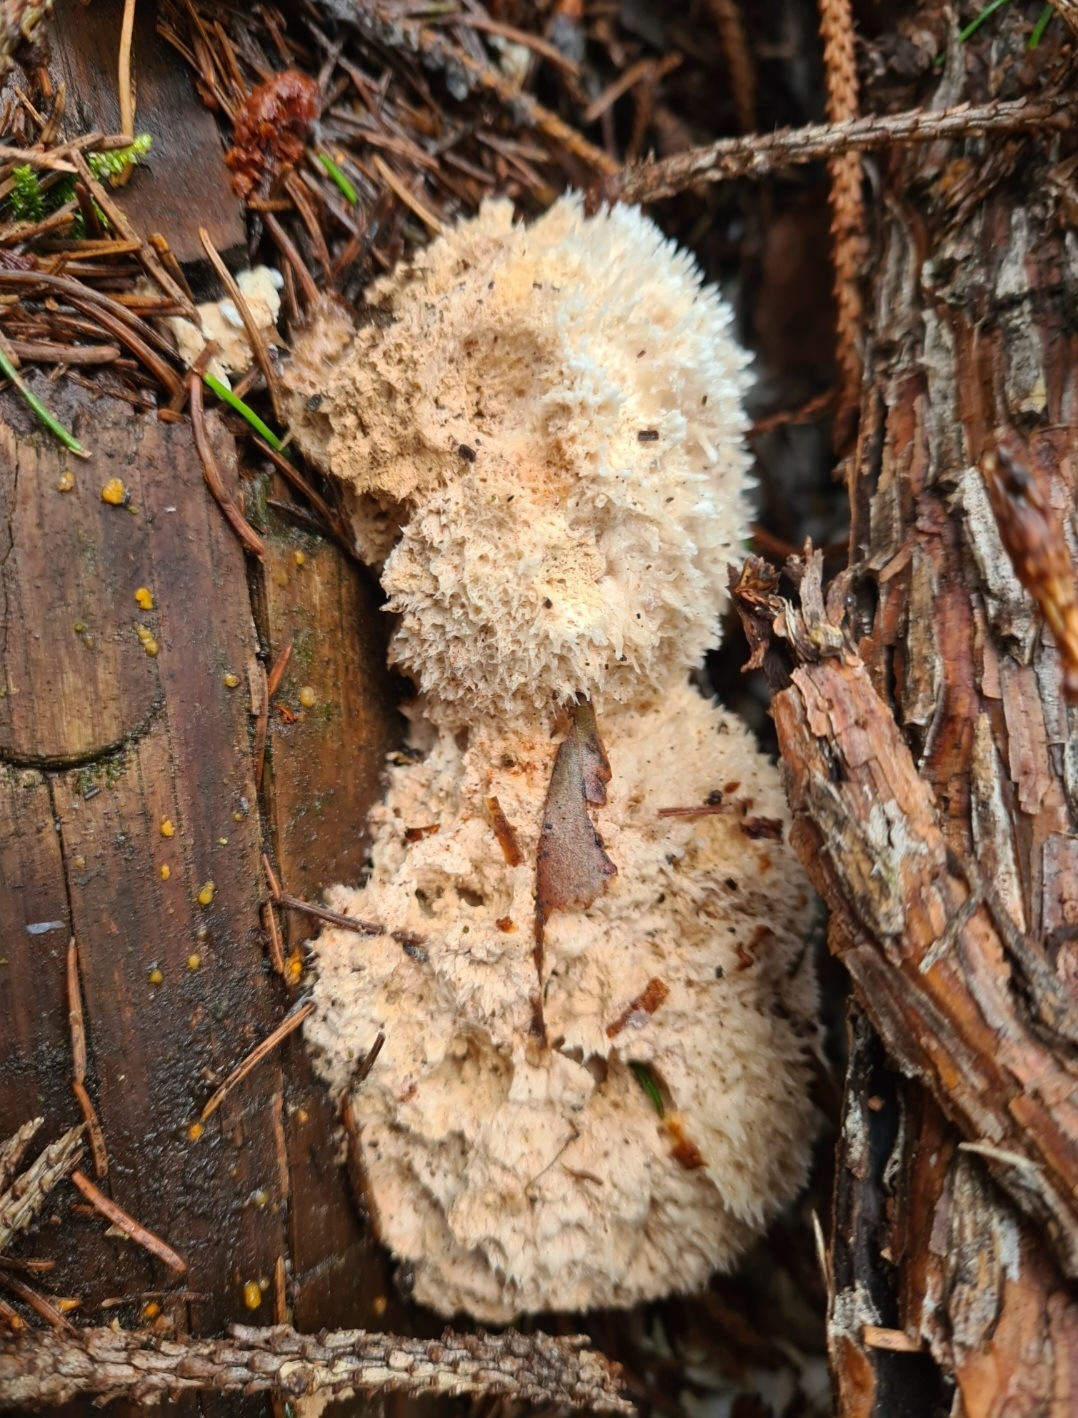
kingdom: Fungi
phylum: Basidiomycota
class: Agaricomycetes
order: Polyporales
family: Dacryobolaceae
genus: Postia
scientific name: Postia ptychogaster
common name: støvende kødporesvamp
